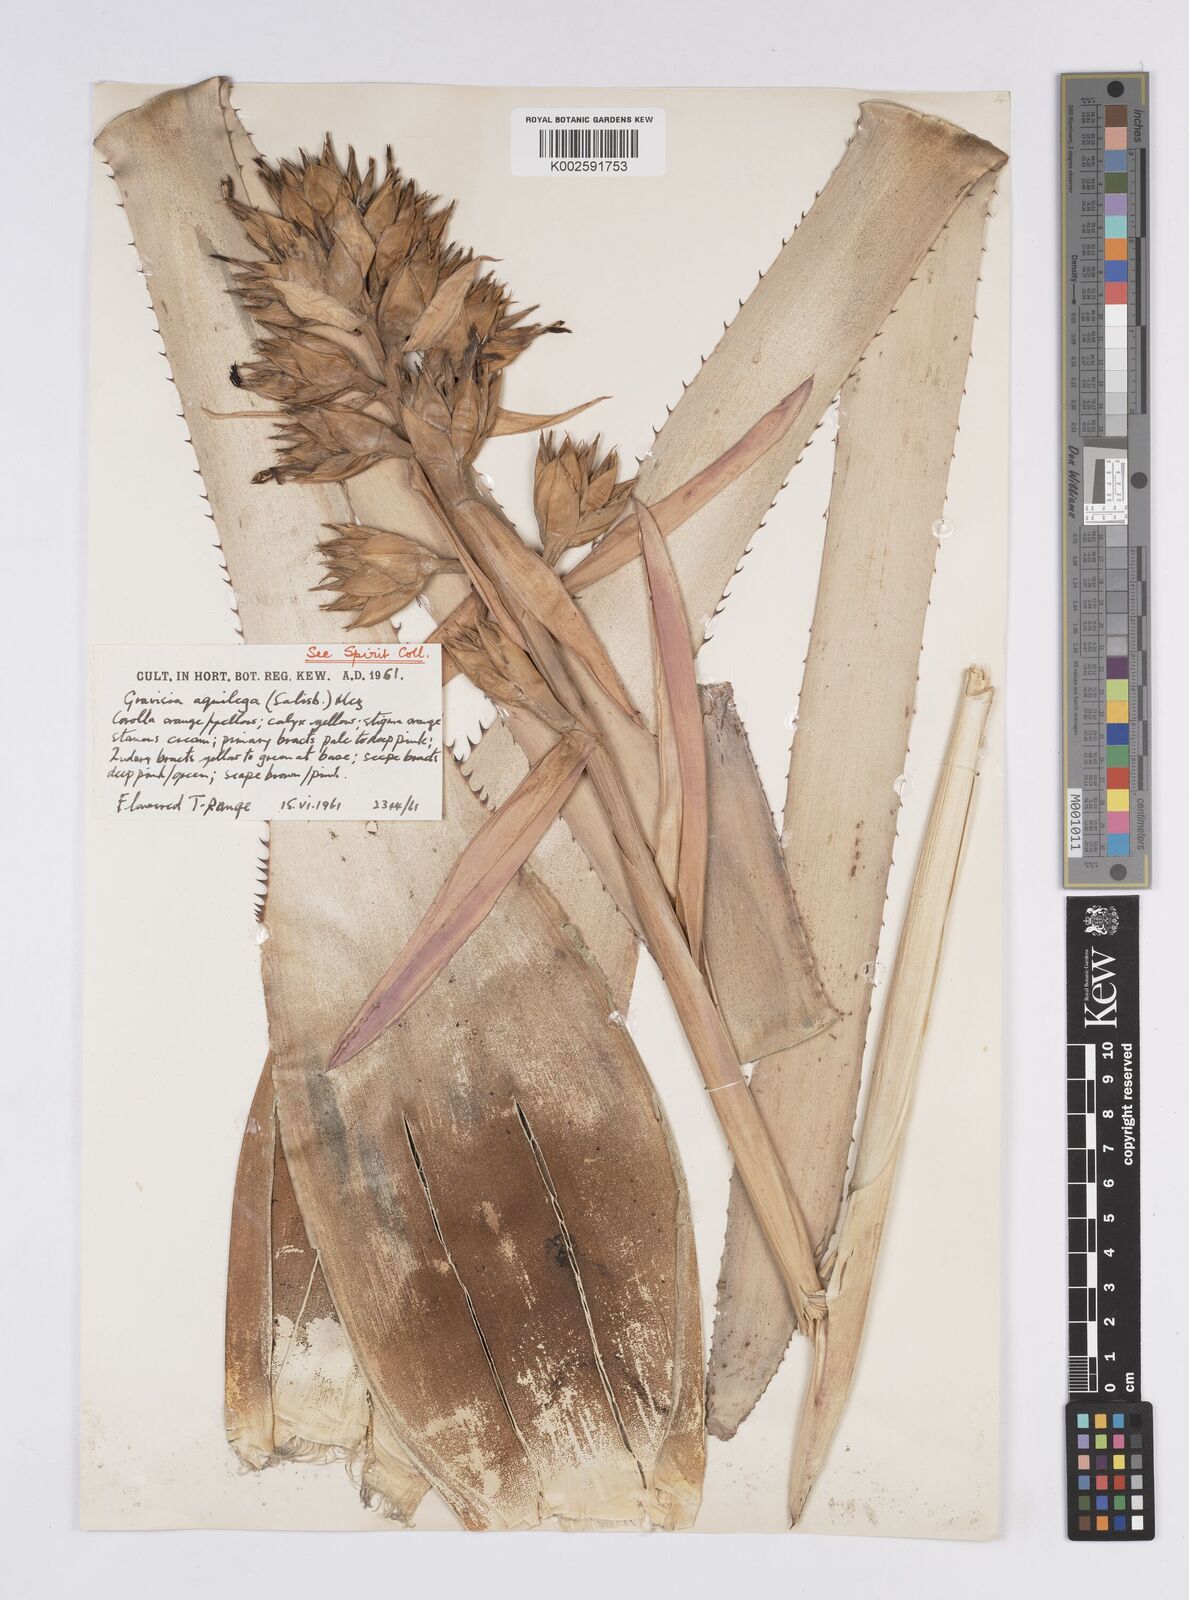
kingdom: Plantae
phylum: Tracheophyta
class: Liliopsida
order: Poales
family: Bromeliaceae
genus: Aechmea
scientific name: Aechmea aquilega
